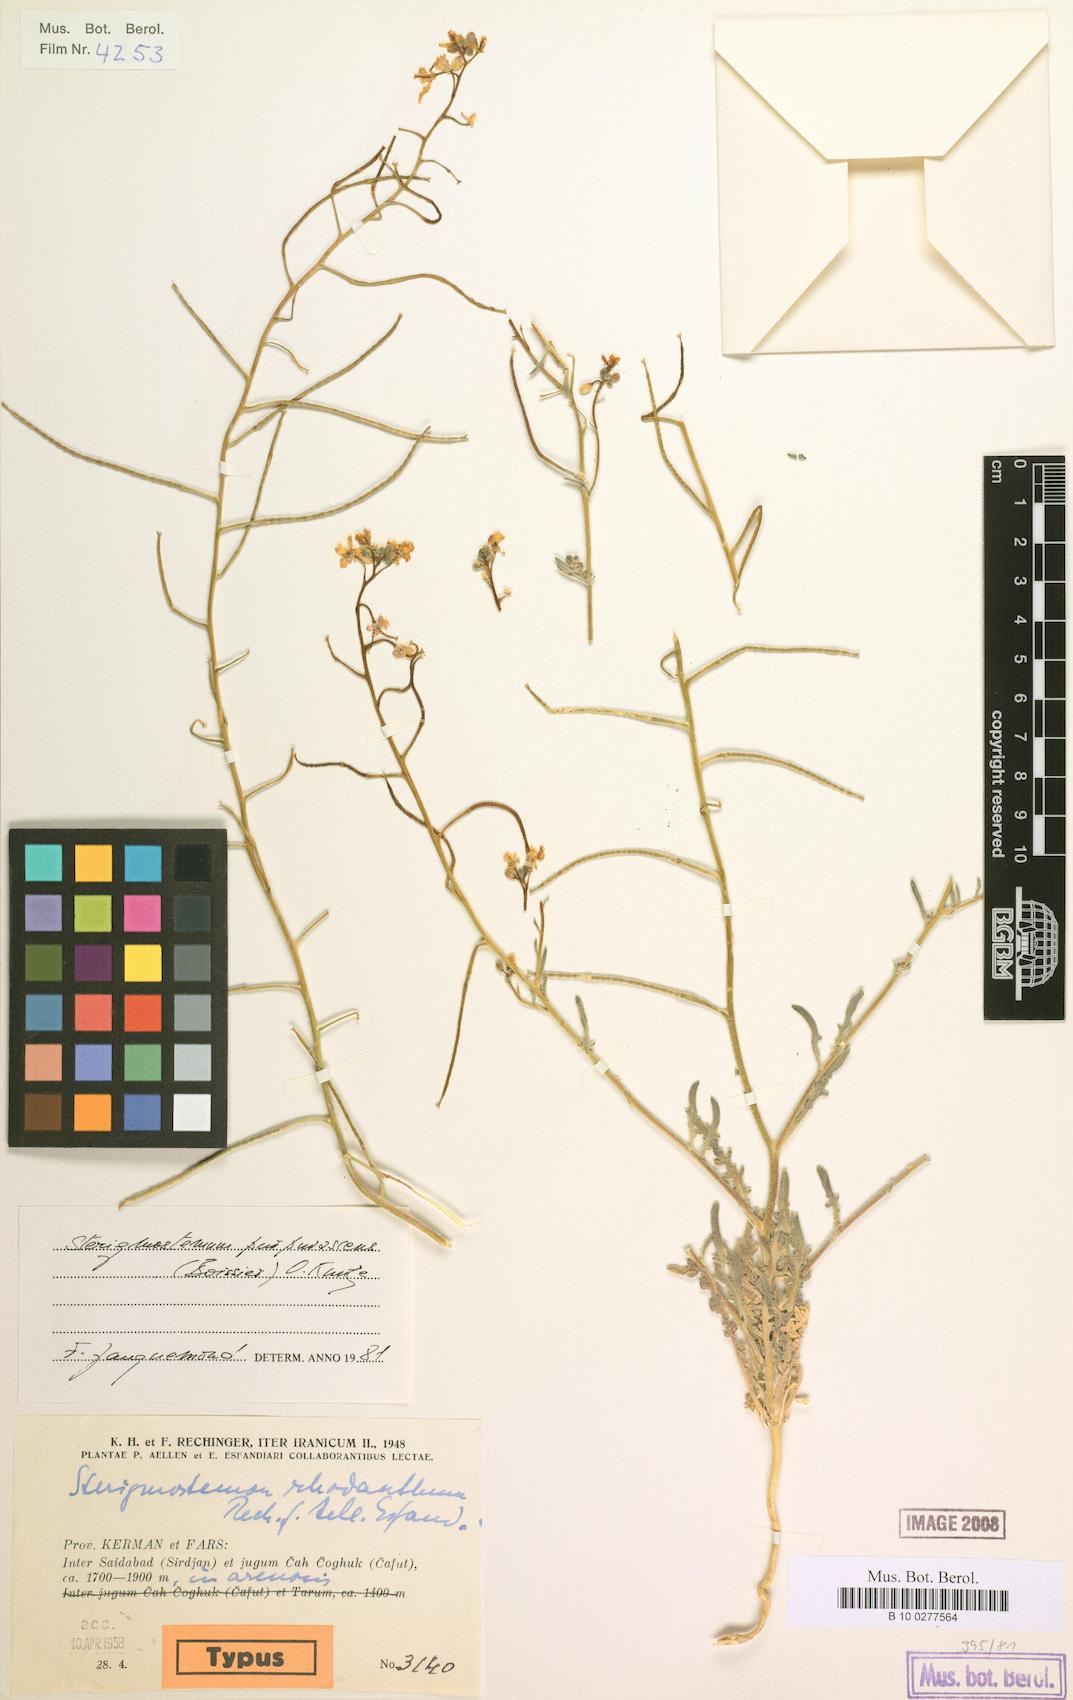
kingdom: Plantae
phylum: Tracheophyta
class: Magnoliopsida
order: Brassicales
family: Brassicaceae
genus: Sterigmostemum
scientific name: Sterigmostemum purpurascens
